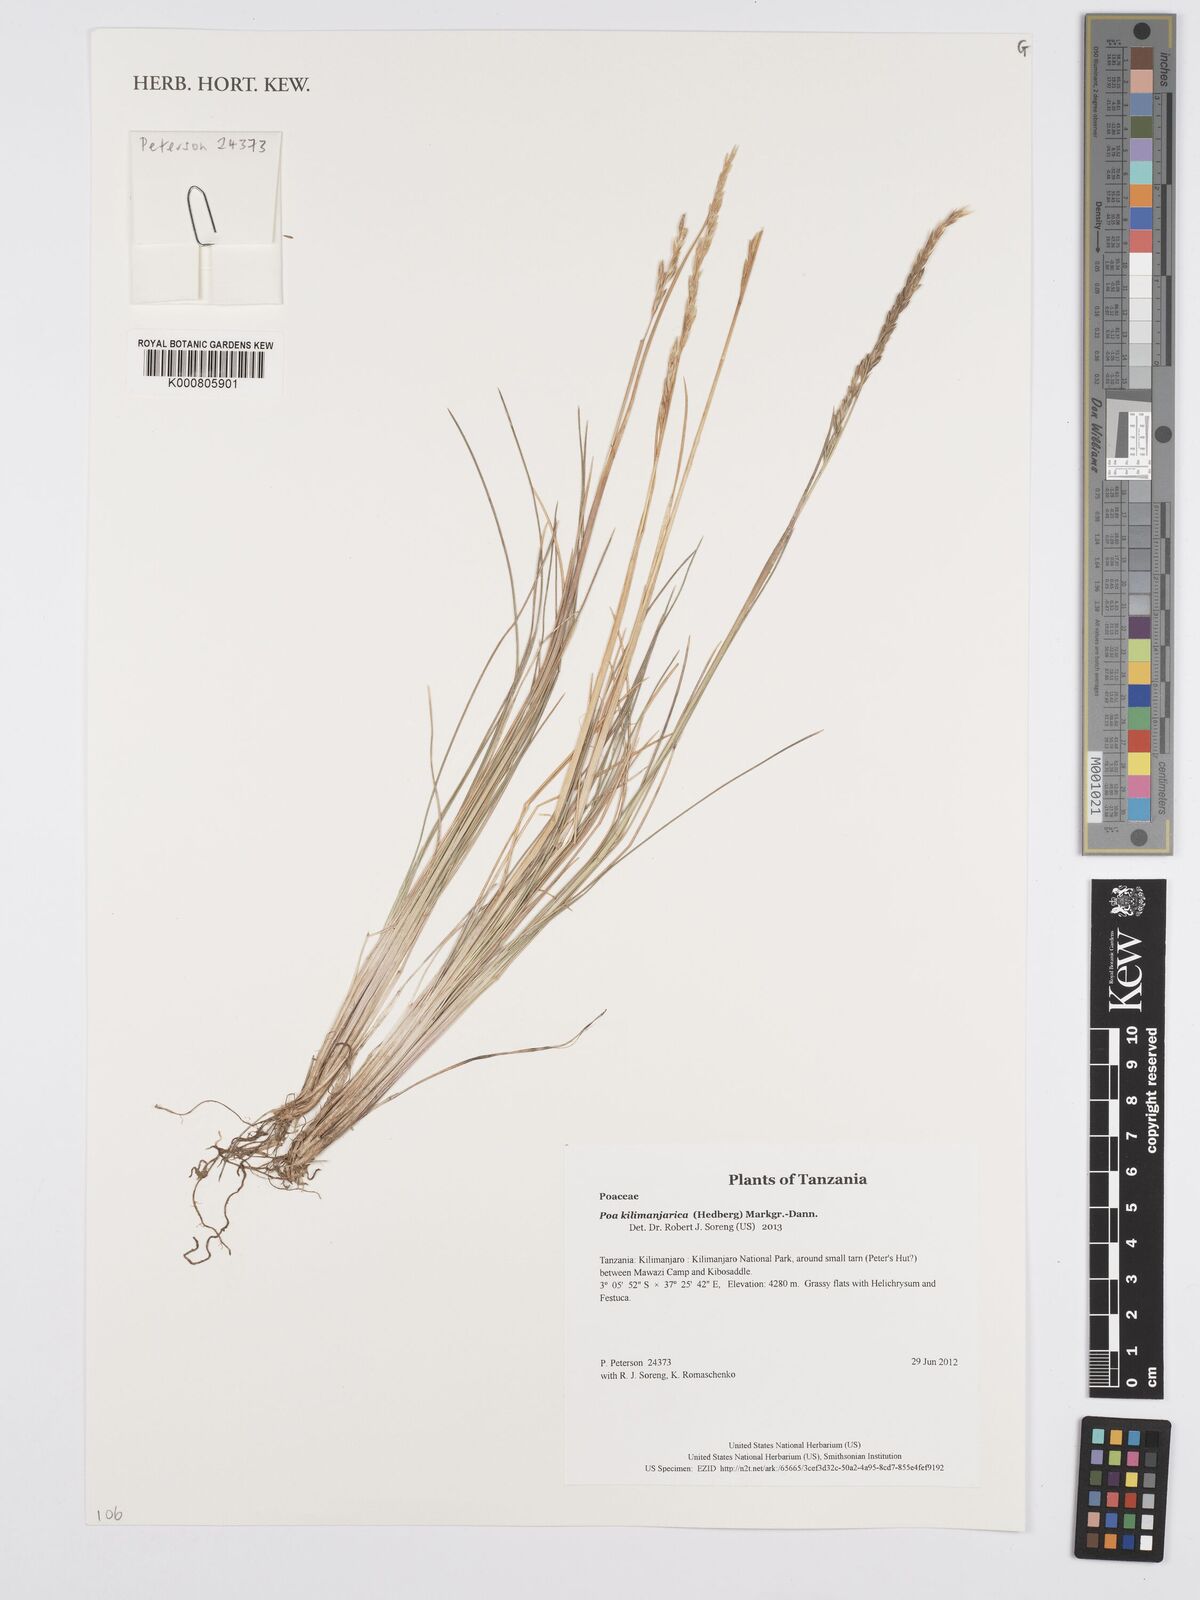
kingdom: Plantae
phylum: Tracheophyta
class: Liliopsida
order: Poales
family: Poaceae
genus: Poa
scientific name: Poa kilimanjarica
